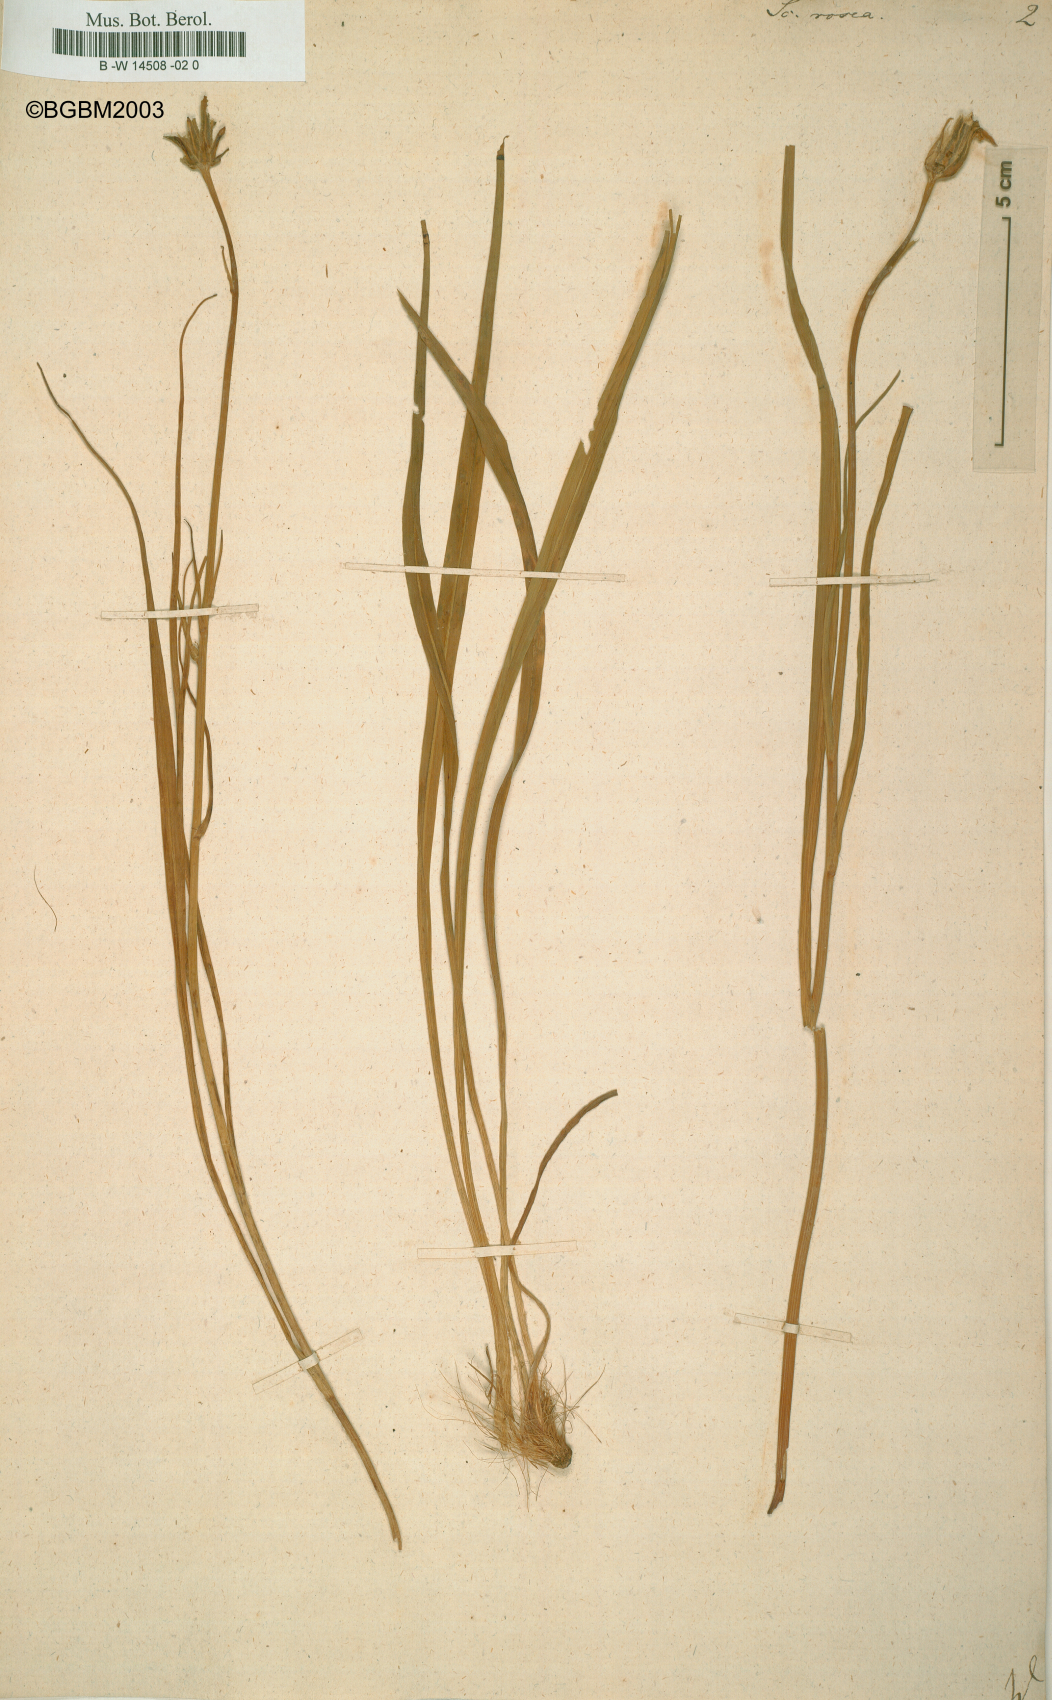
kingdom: Plantae
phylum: Tracheophyta
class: Magnoliopsida
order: Asterales
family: Asteraceae
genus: Scorzonera
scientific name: Scorzonera rosea
